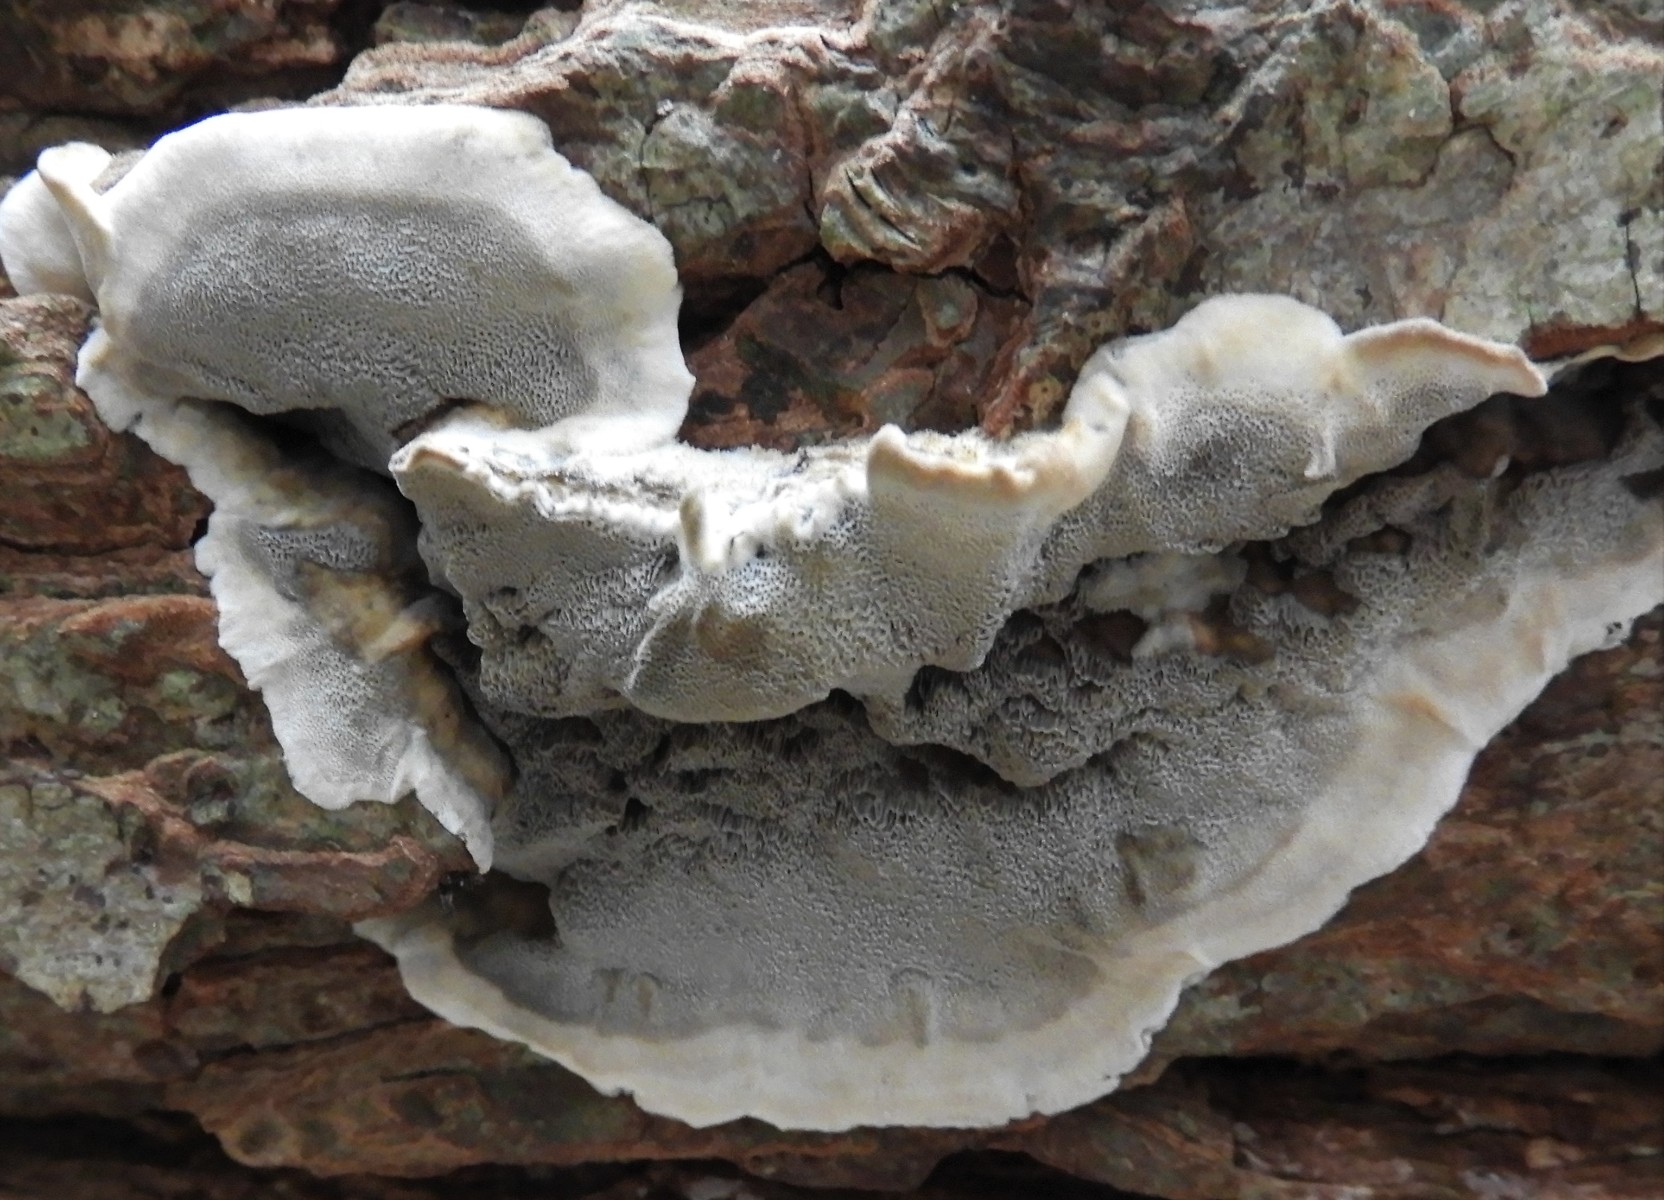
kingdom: Fungi
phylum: Basidiomycota
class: Agaricomycetes
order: Polyporales
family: Phanerochaetaceae
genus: Bjerkandera
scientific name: Bjerkandera adusta
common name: sveden sodporesvamp
